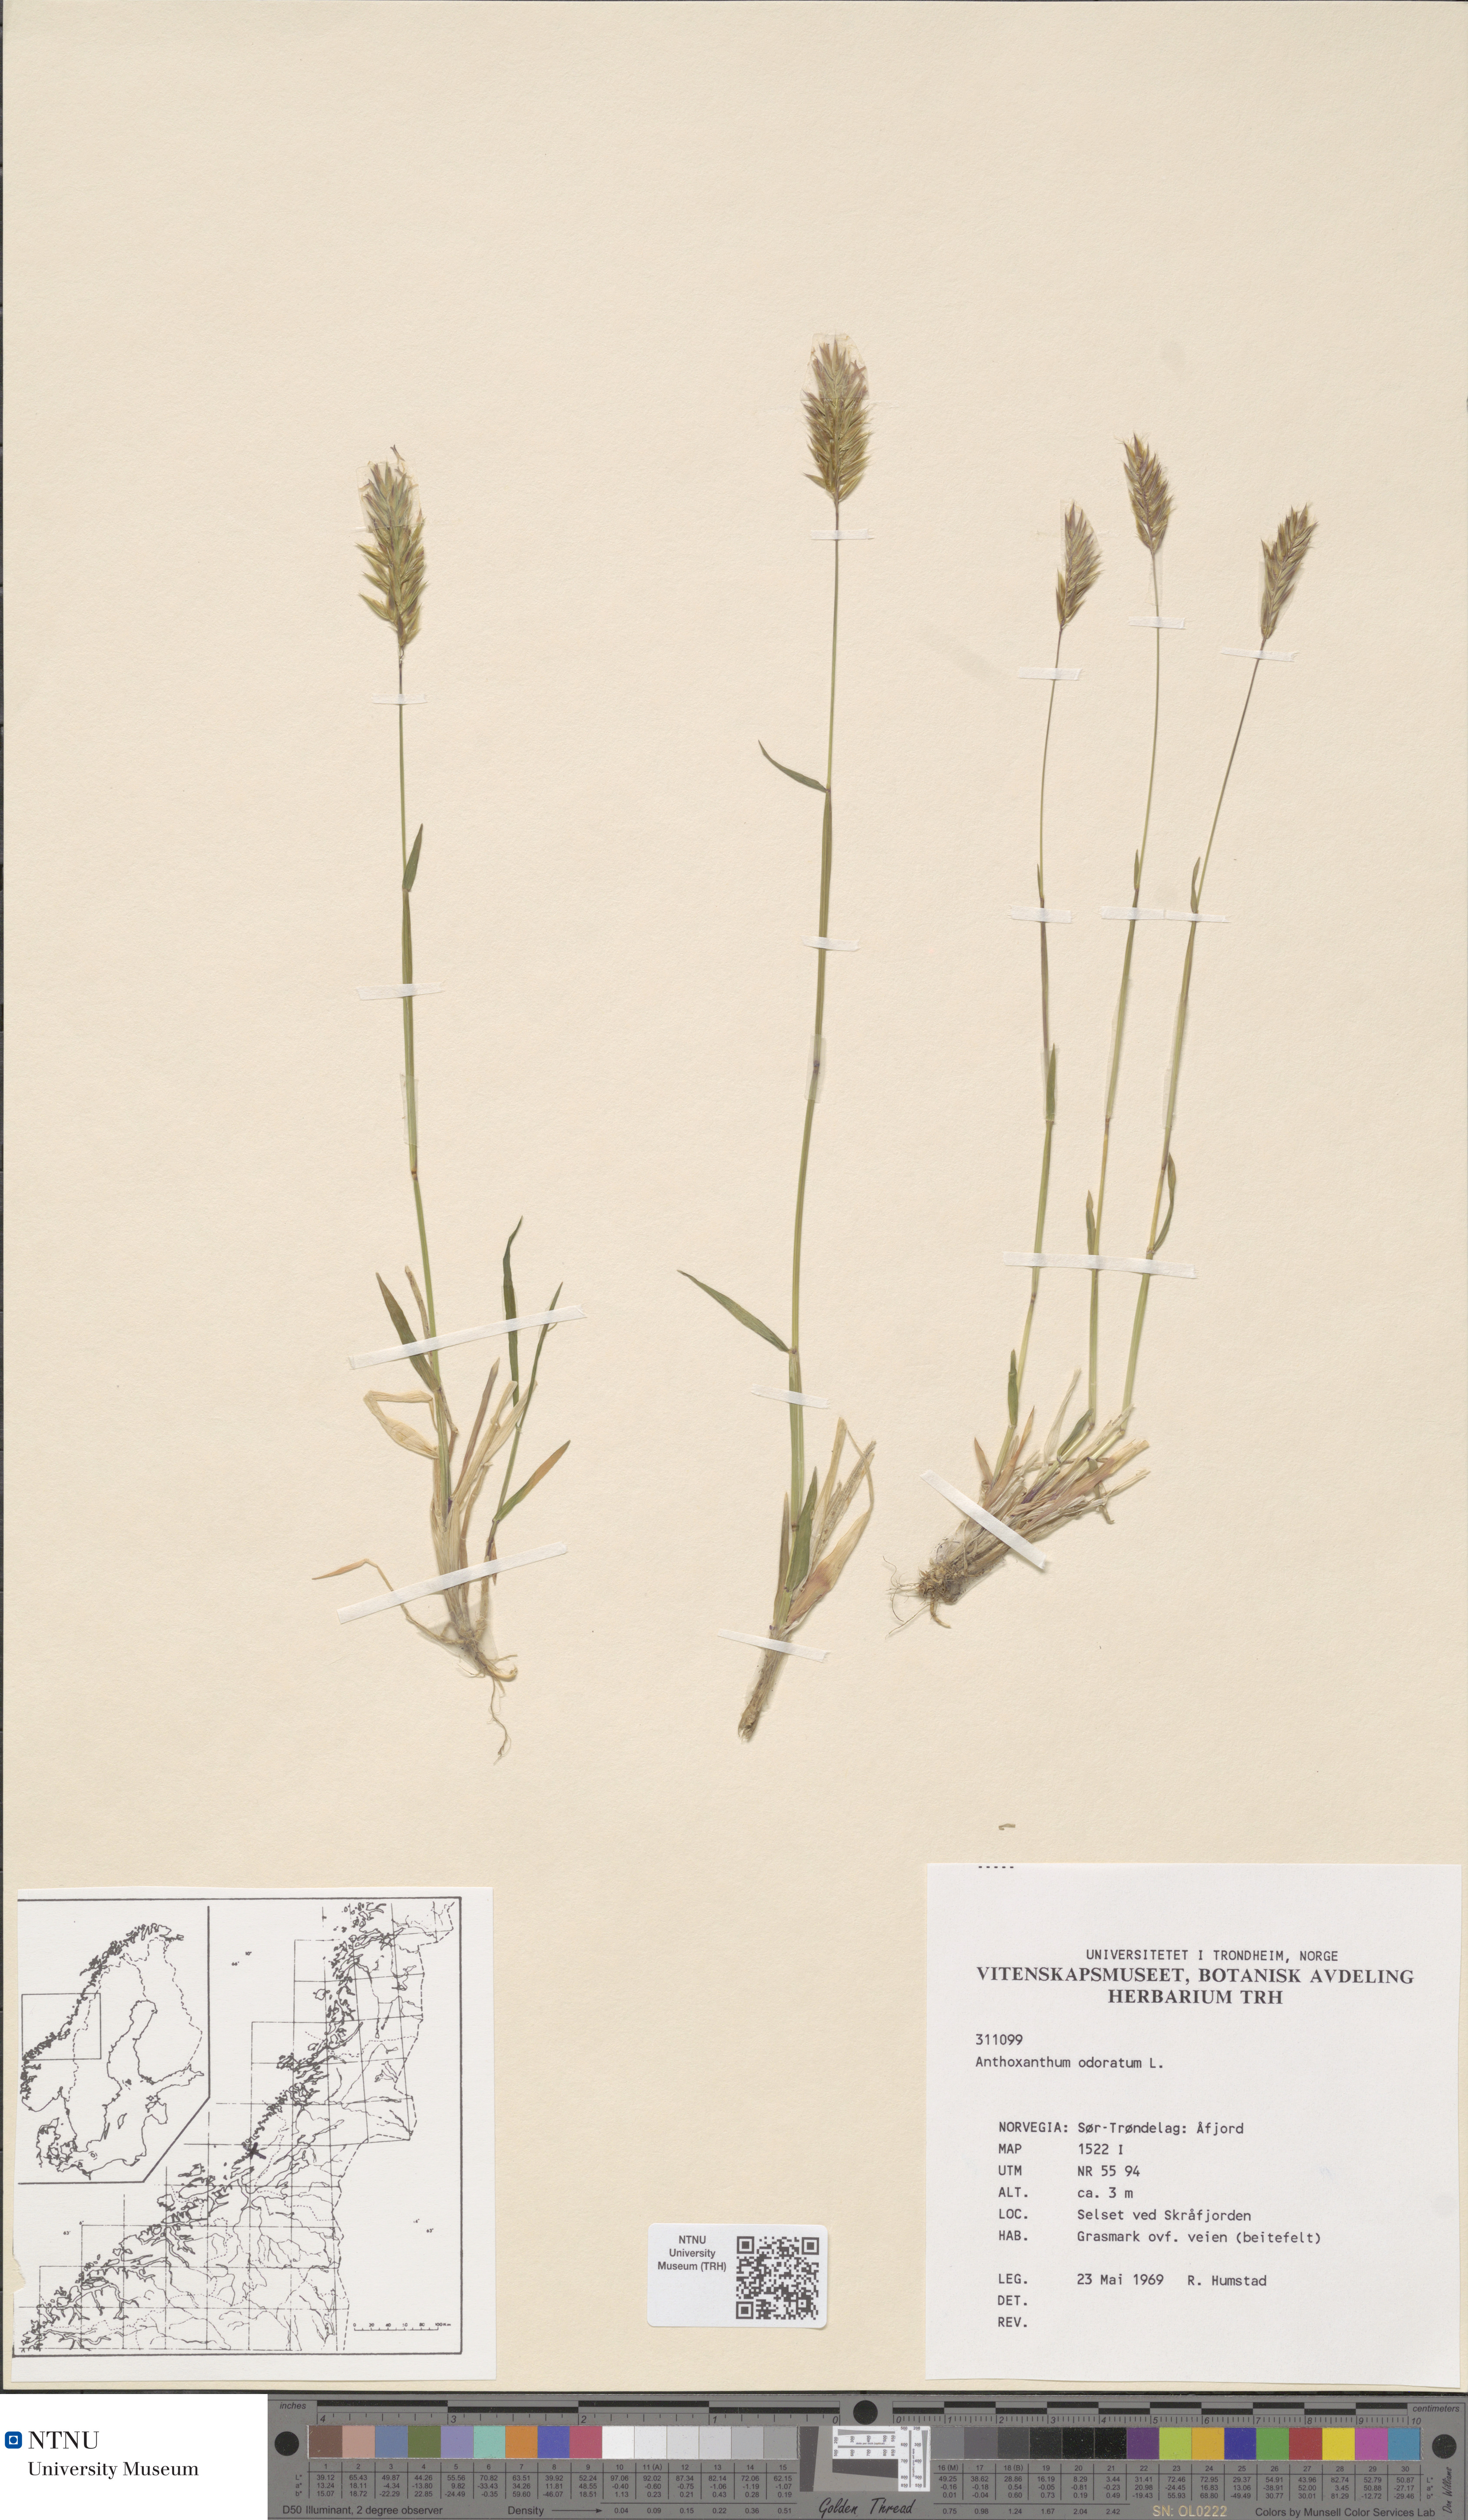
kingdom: Plantae
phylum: Tracheophyta
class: Liliopsida
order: Poales
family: Poaceae
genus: Anthoxanthum
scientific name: Anthoxanthum odoratum
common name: Sweet vernalgrass
